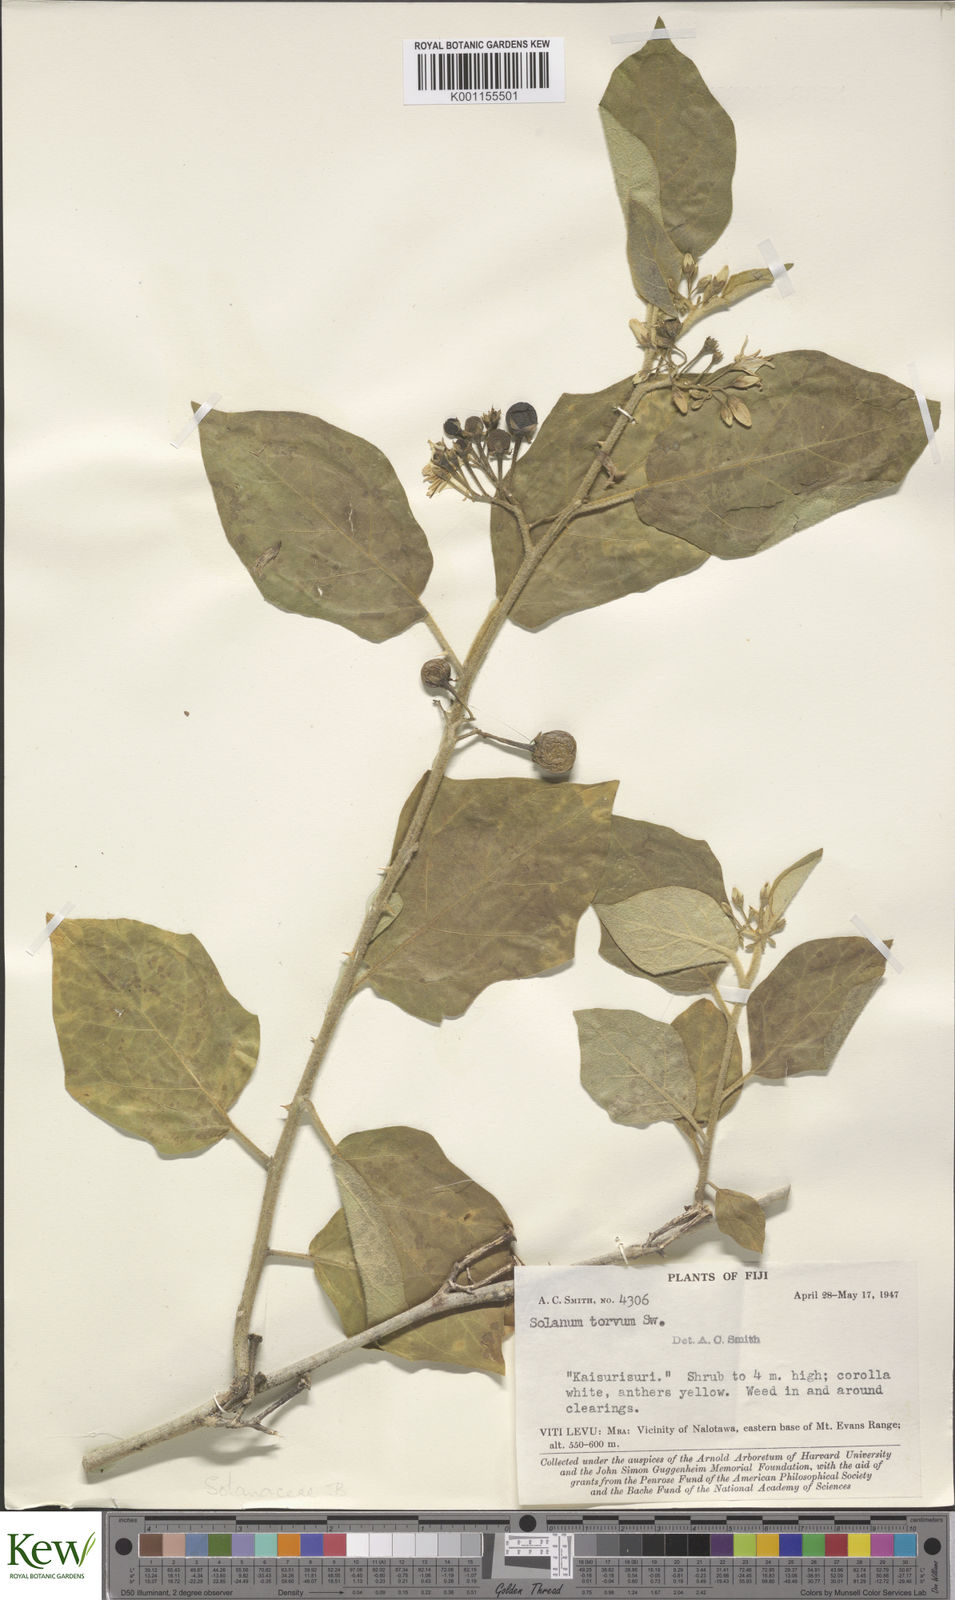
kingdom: Plantae
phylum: Tracheophyta
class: Magnoliopsida
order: Solanales
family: Solanaceae
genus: Solanum
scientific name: Solanum torvum
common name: Turkey berry
